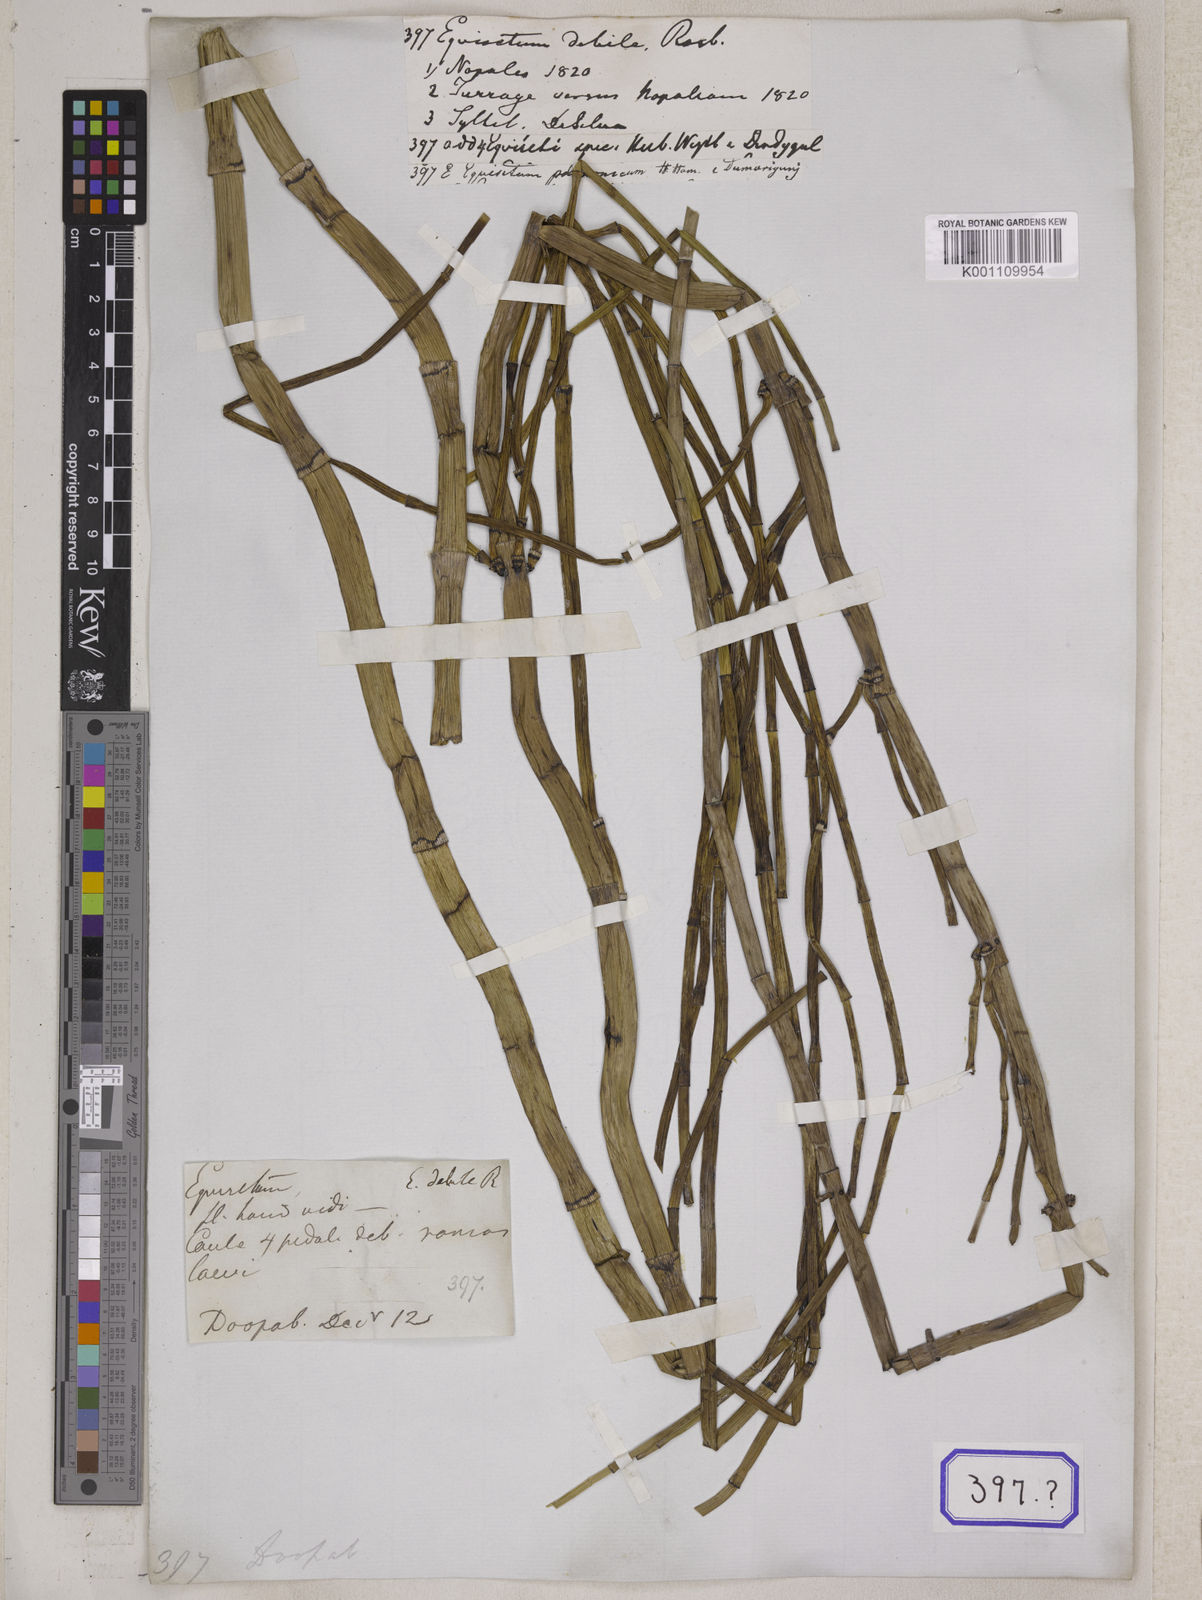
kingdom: Plantae
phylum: Tracheophyta
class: Polypodiopsida
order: Equisetales
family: Equisetaceae
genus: Equisetum
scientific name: Equisetum
